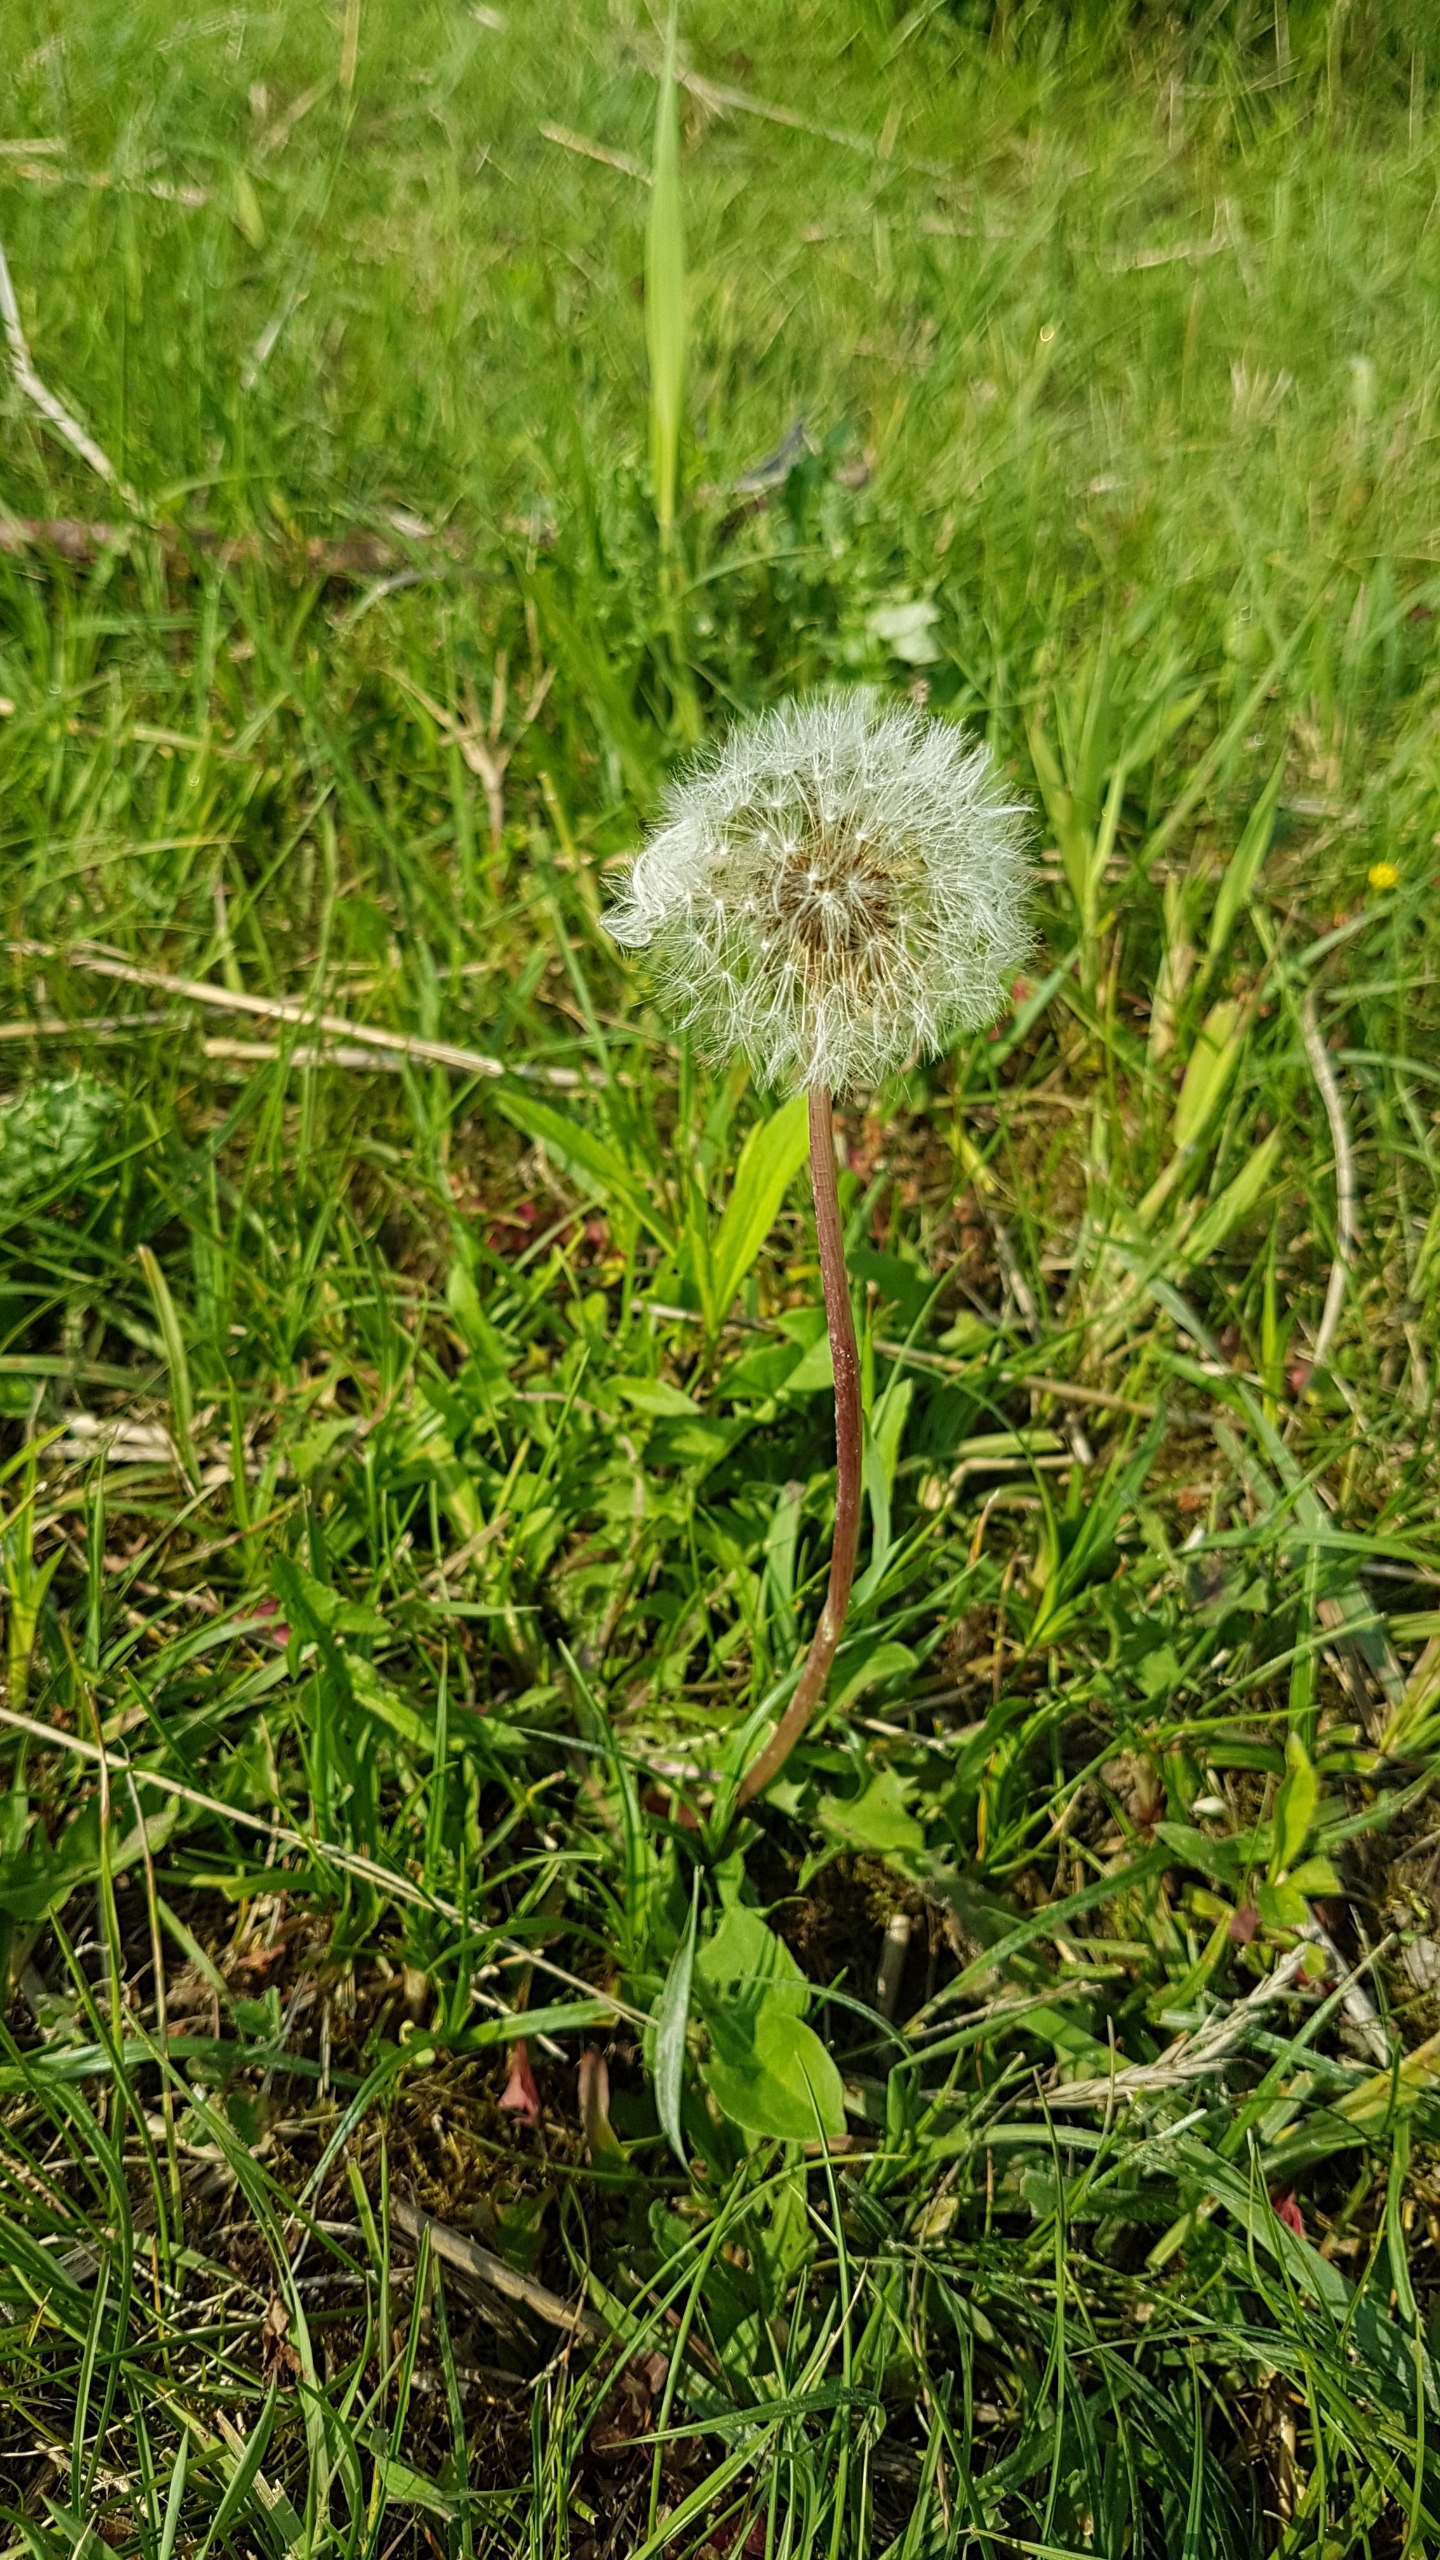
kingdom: Plantae
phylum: Tracheophyta
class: Magnoliopsida
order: Asterales
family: Asteraceae
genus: Taraxacum
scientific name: Taraxacum
